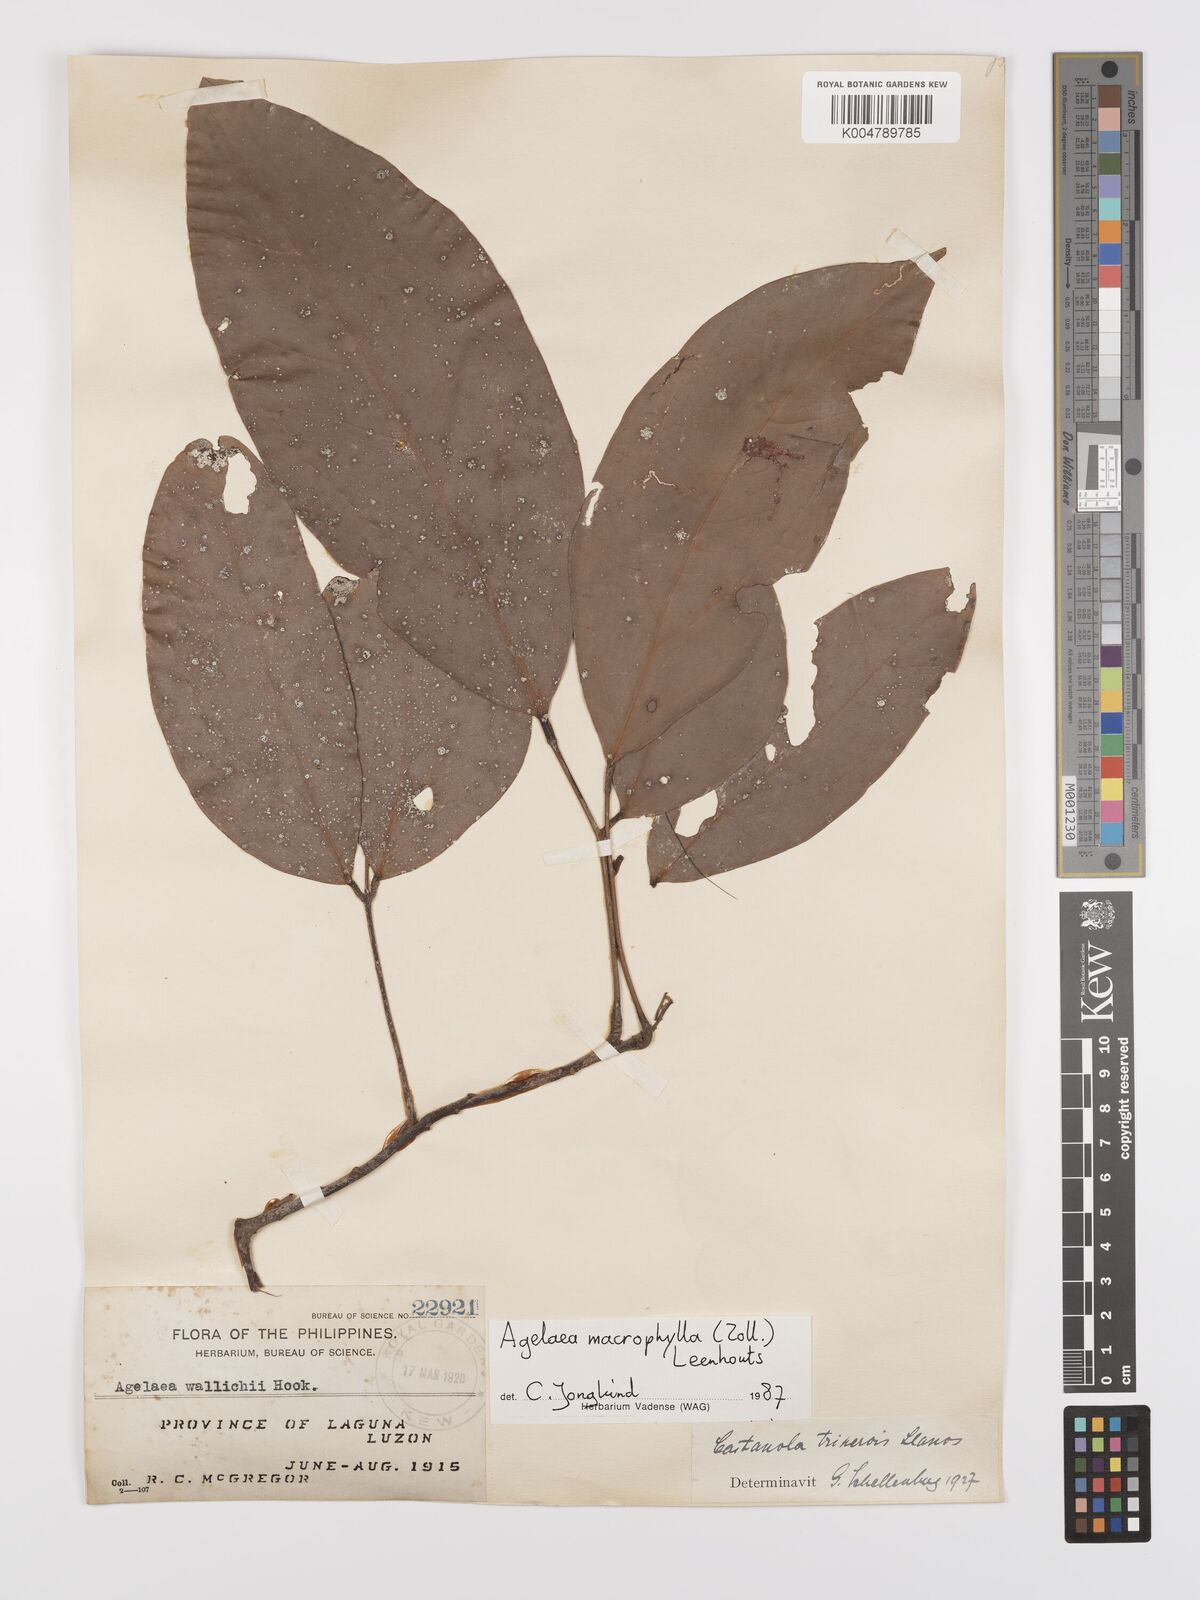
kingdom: Plantae
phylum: Tracheophyta
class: Magnoliopsida
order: Oxalidales
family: Connaraceae
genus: Agelaea
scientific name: Agelaea trinervis
